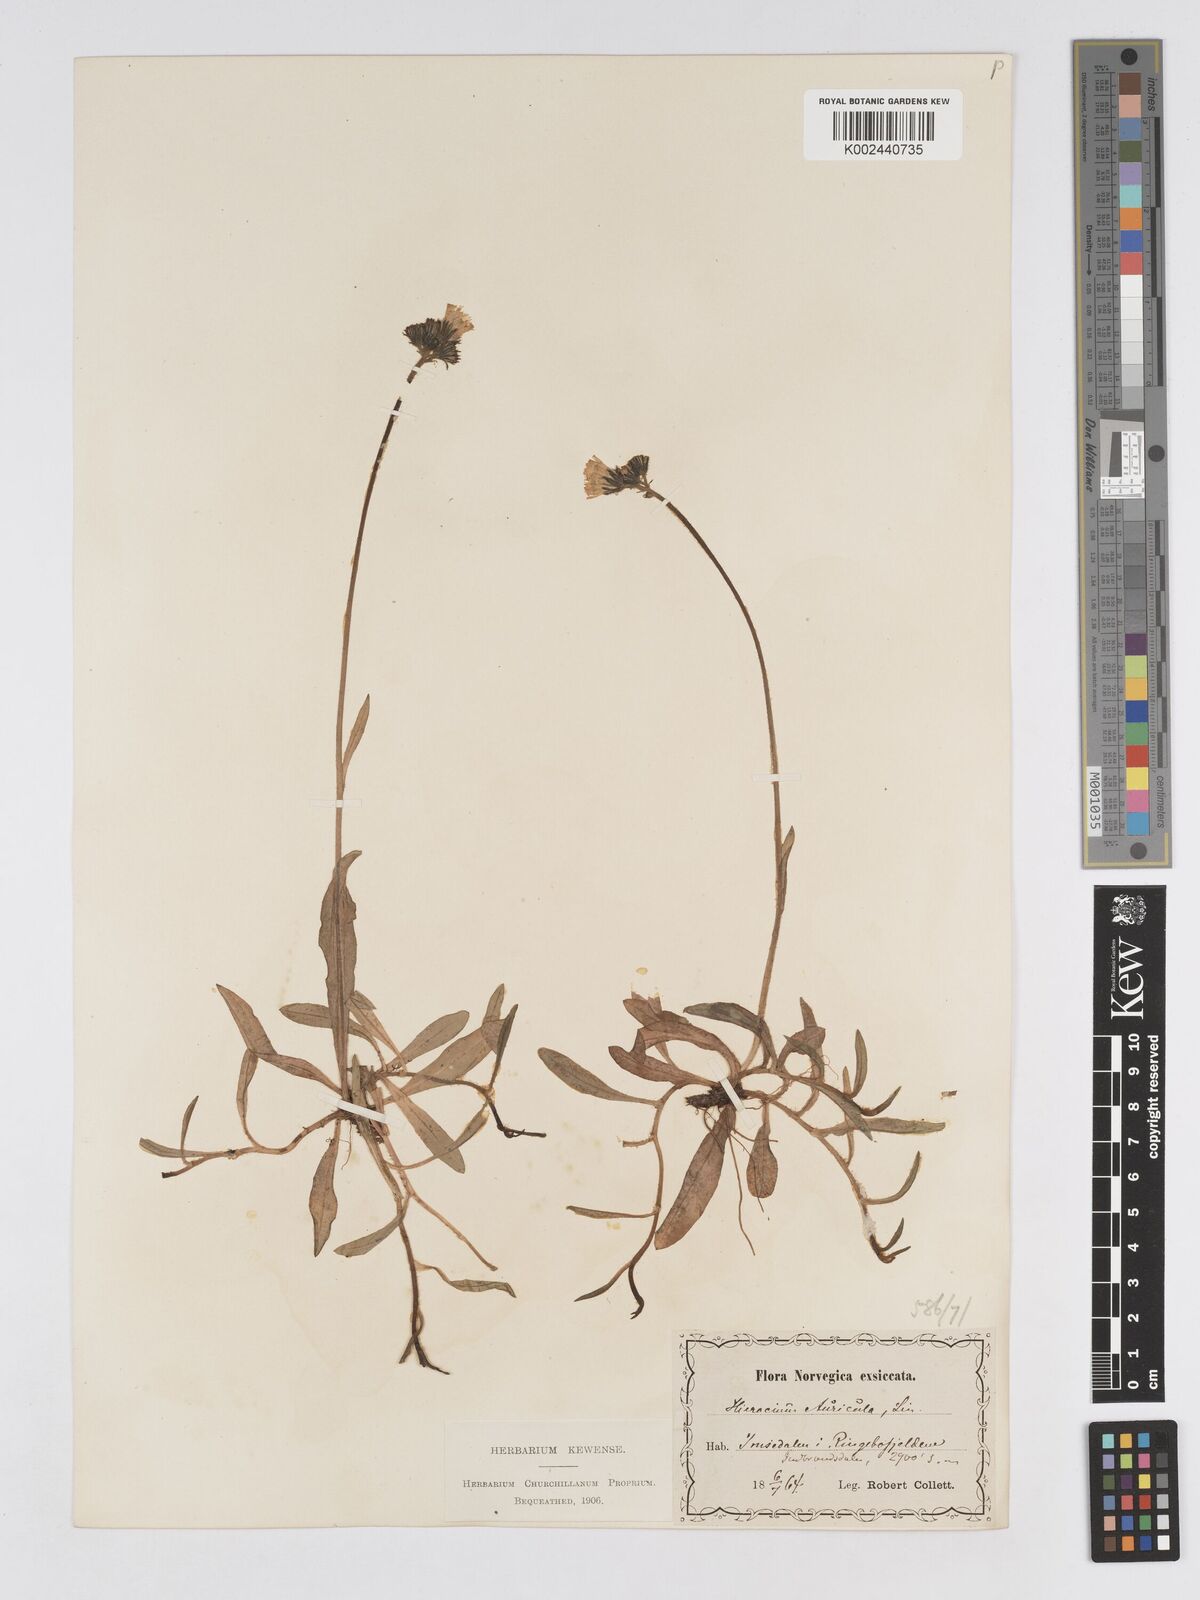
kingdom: Plantae
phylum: Tracheophyta
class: Magnoliopsida
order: Asterales
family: Asteraceae
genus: Pilosella
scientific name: Pilosella floribunda
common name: Glaucous hawkweed
